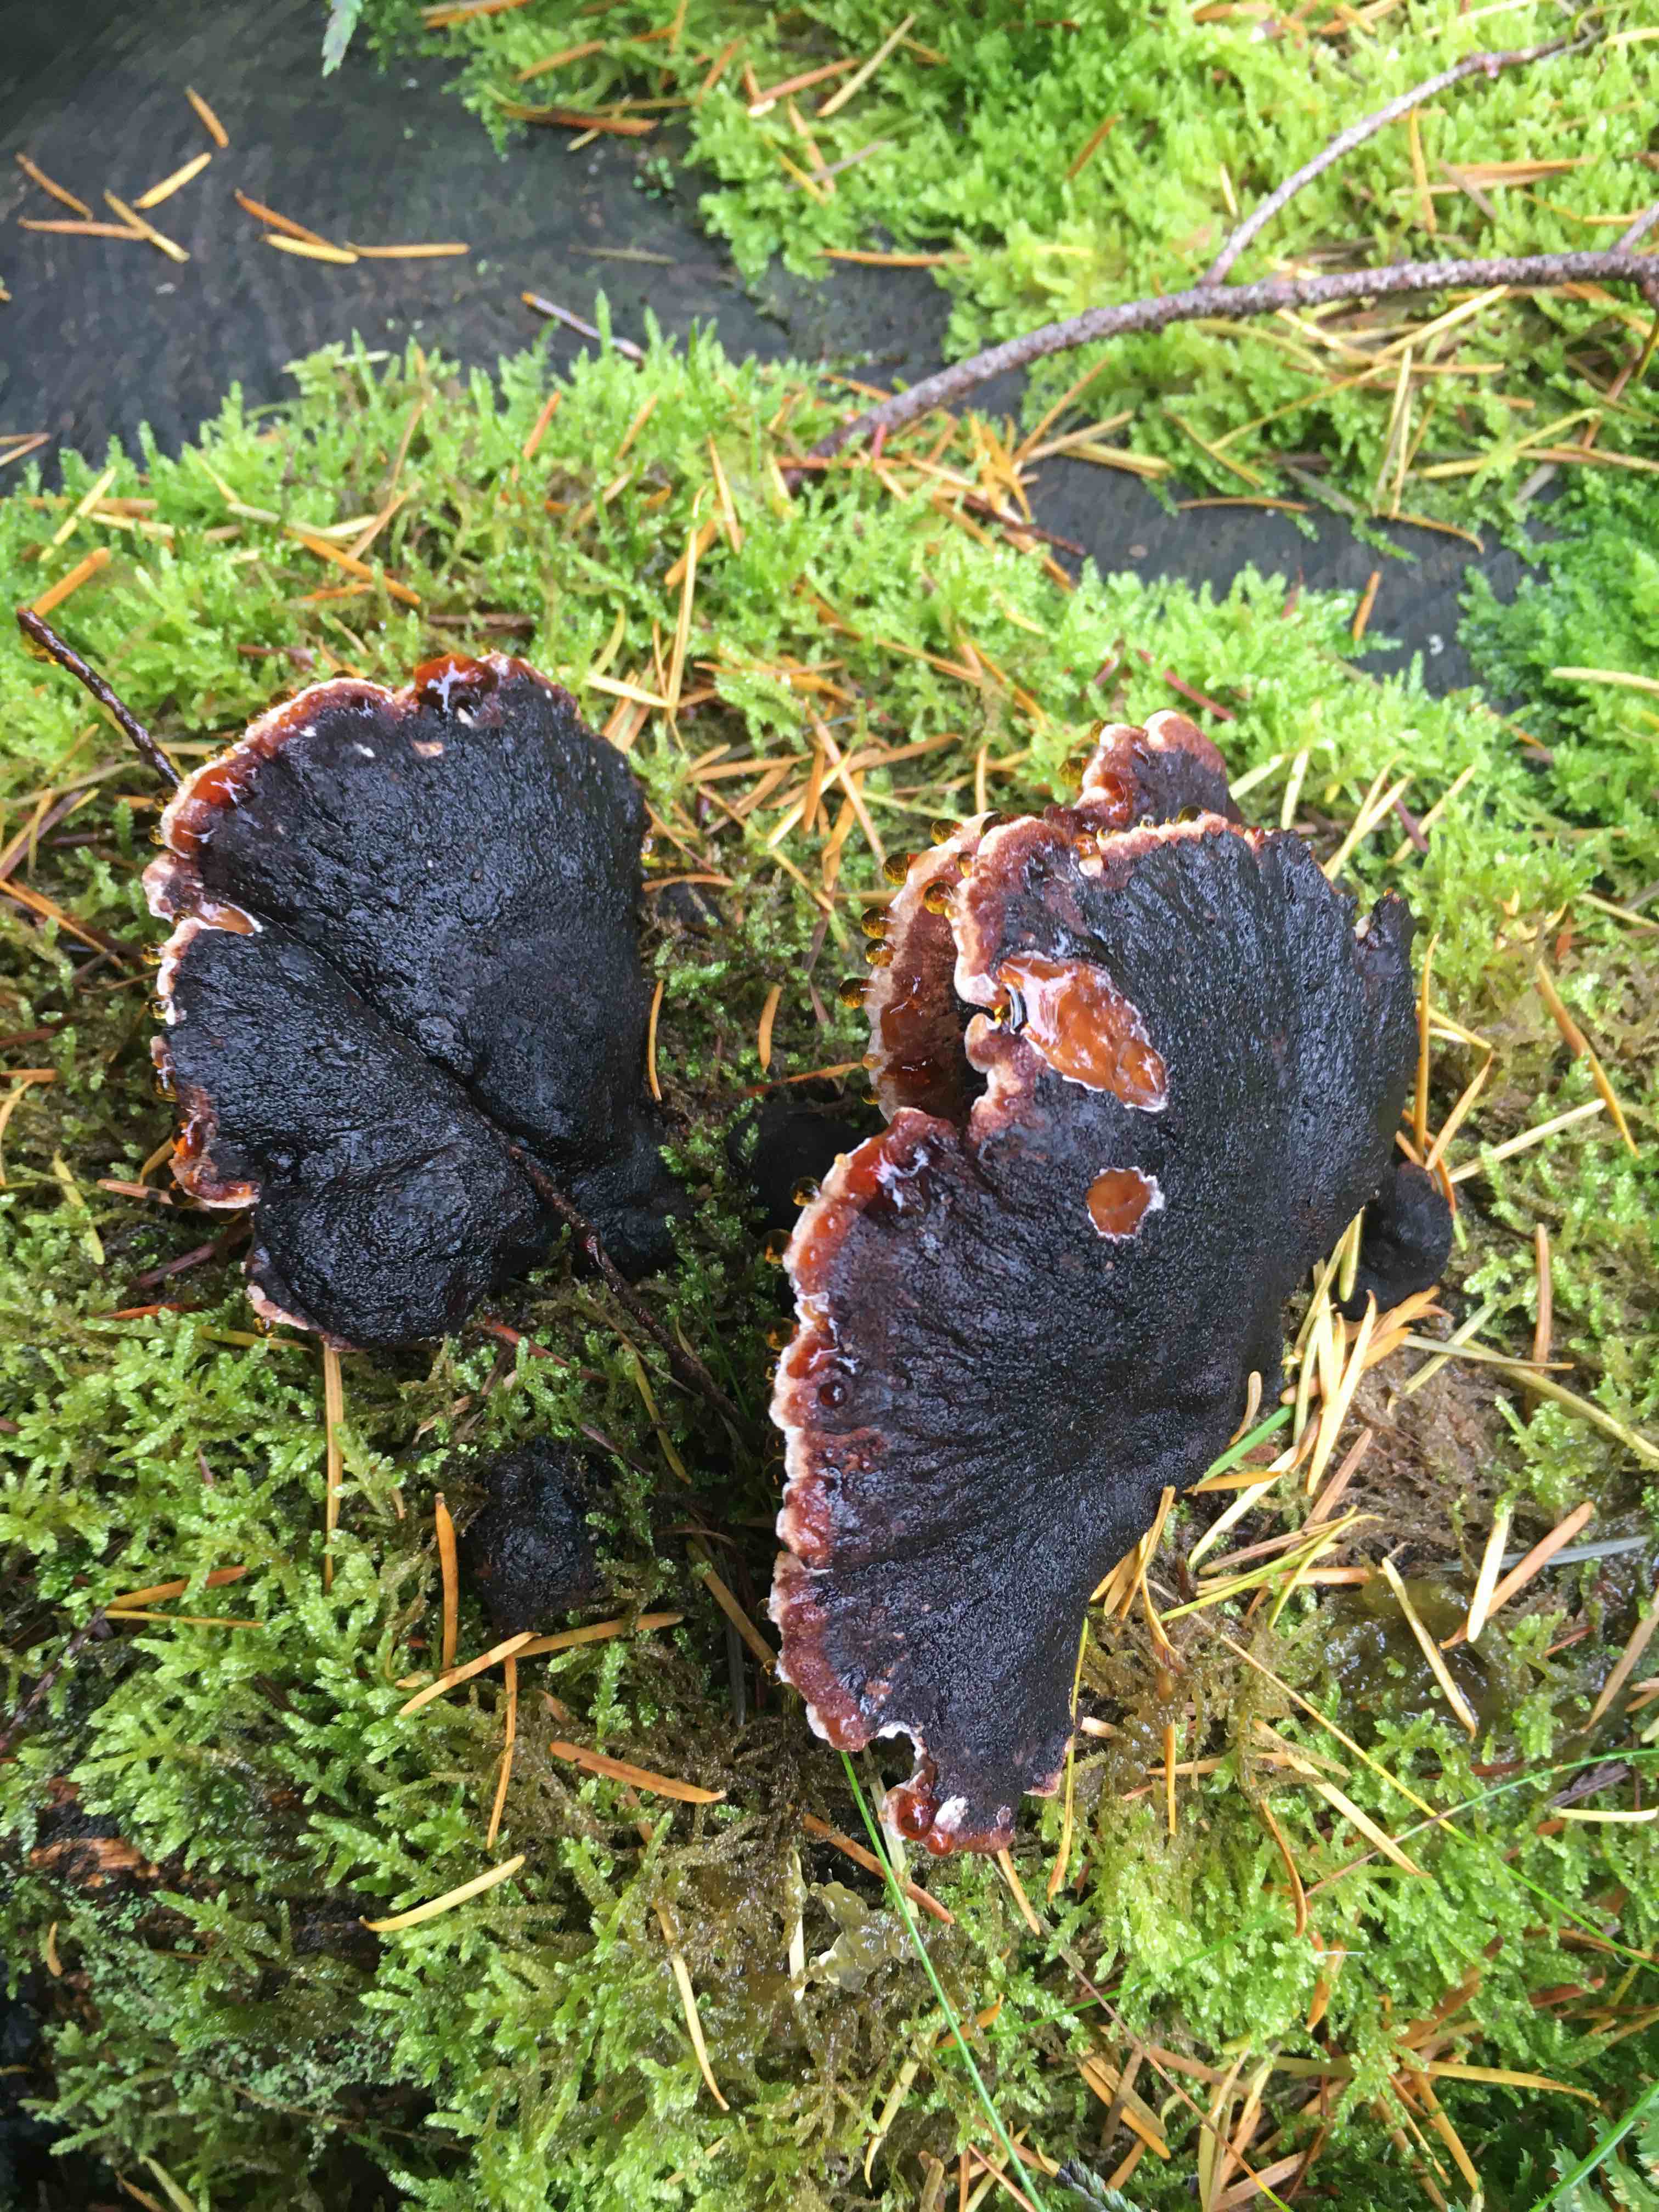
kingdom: Fungi
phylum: Basidiomycota
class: Agaricomycetes
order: Polyporales
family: Ischnodermataceae
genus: Ischnoderma
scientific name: Ischnoderma benzoinum
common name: gran-tjæreporesvamp
